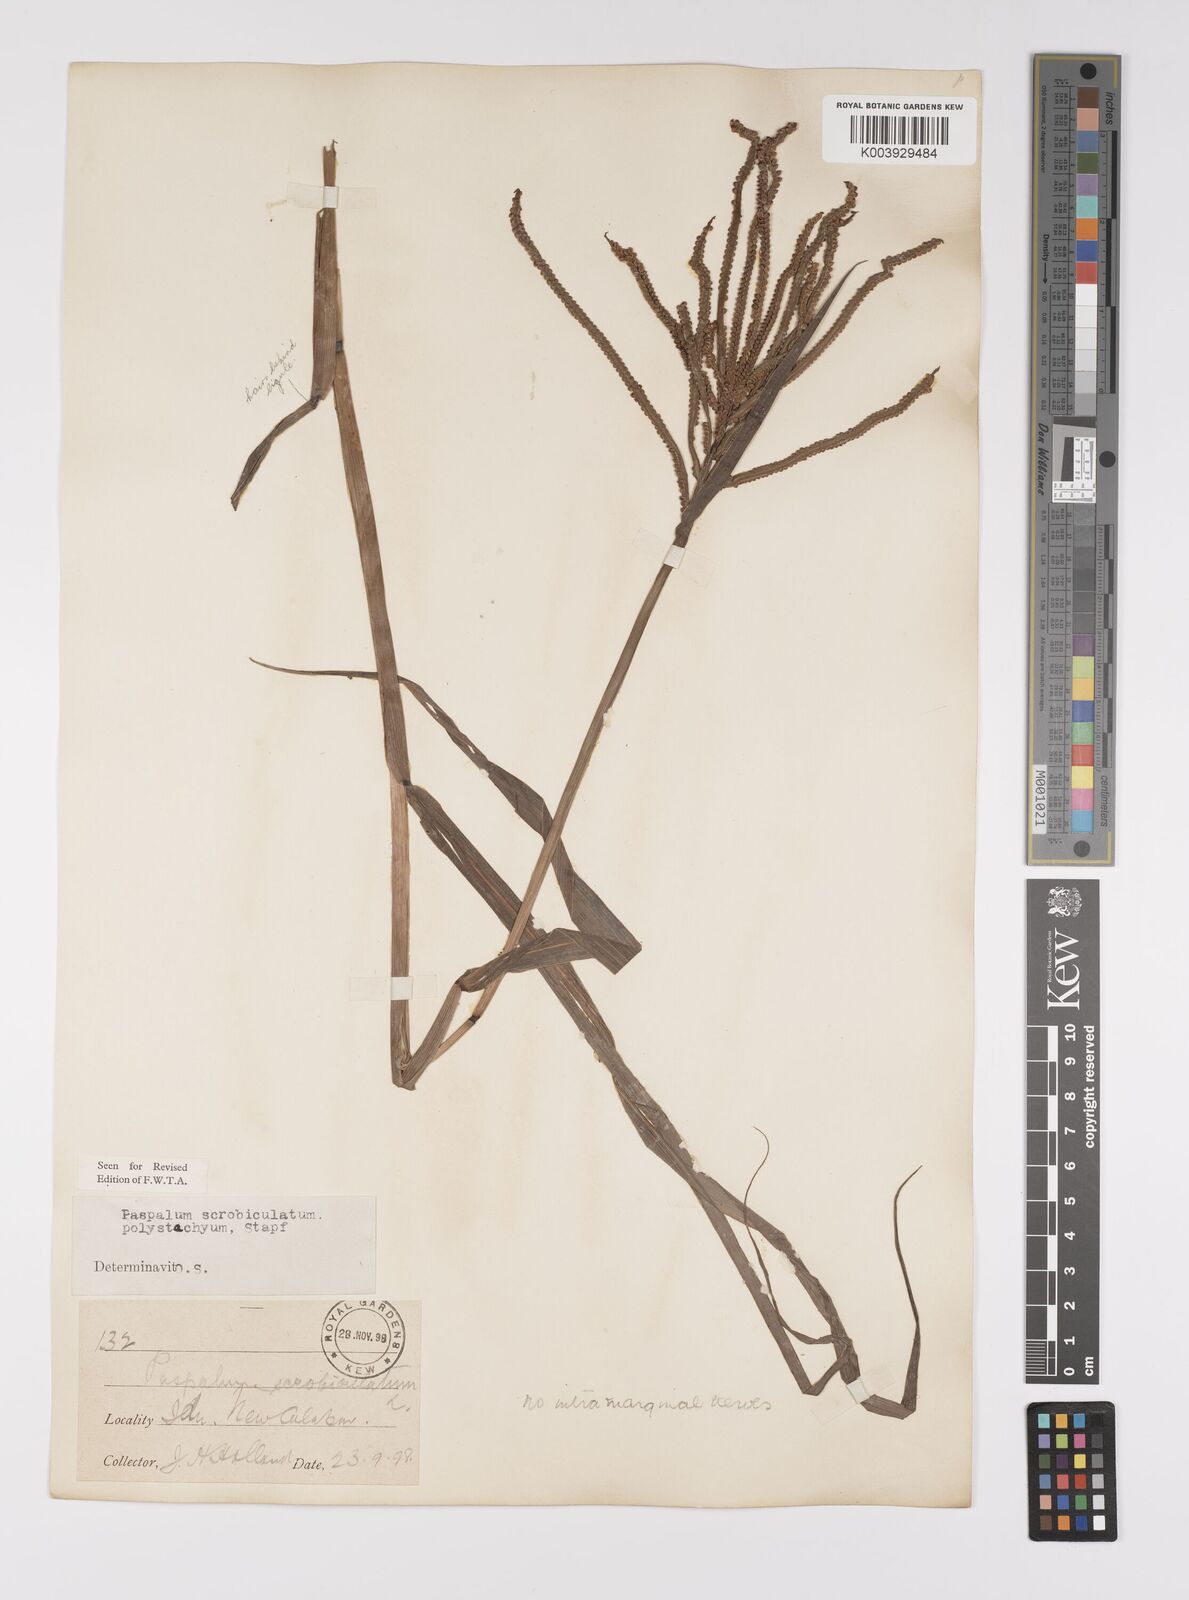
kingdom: Plantae
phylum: Tracheophyta
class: Liliopsida
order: Poales
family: Poaceae
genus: Paspalum
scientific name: Paspalum scrobiculatum
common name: Kodo millet
